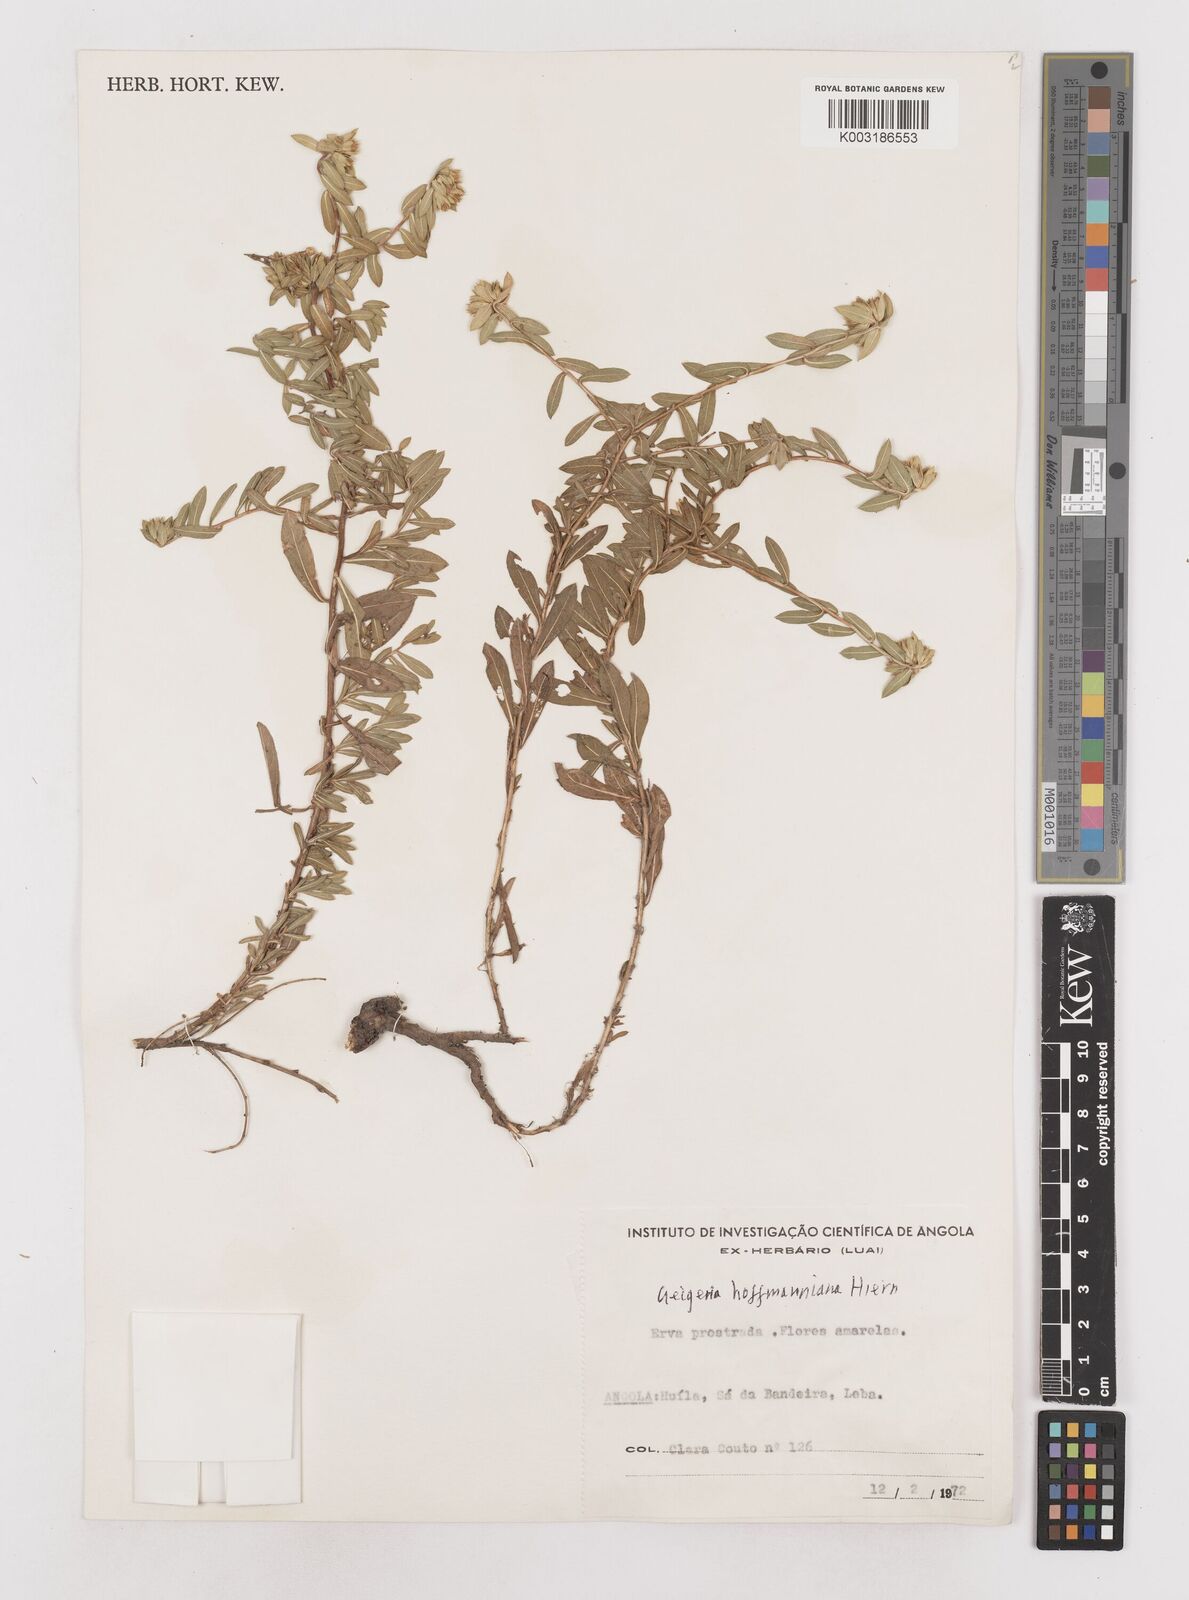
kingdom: Plantae
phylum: Tracheophyta
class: Magnoliopsida
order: Asterales
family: Asteraceae
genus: Geigeria
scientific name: Geigeria hoffmanniana
